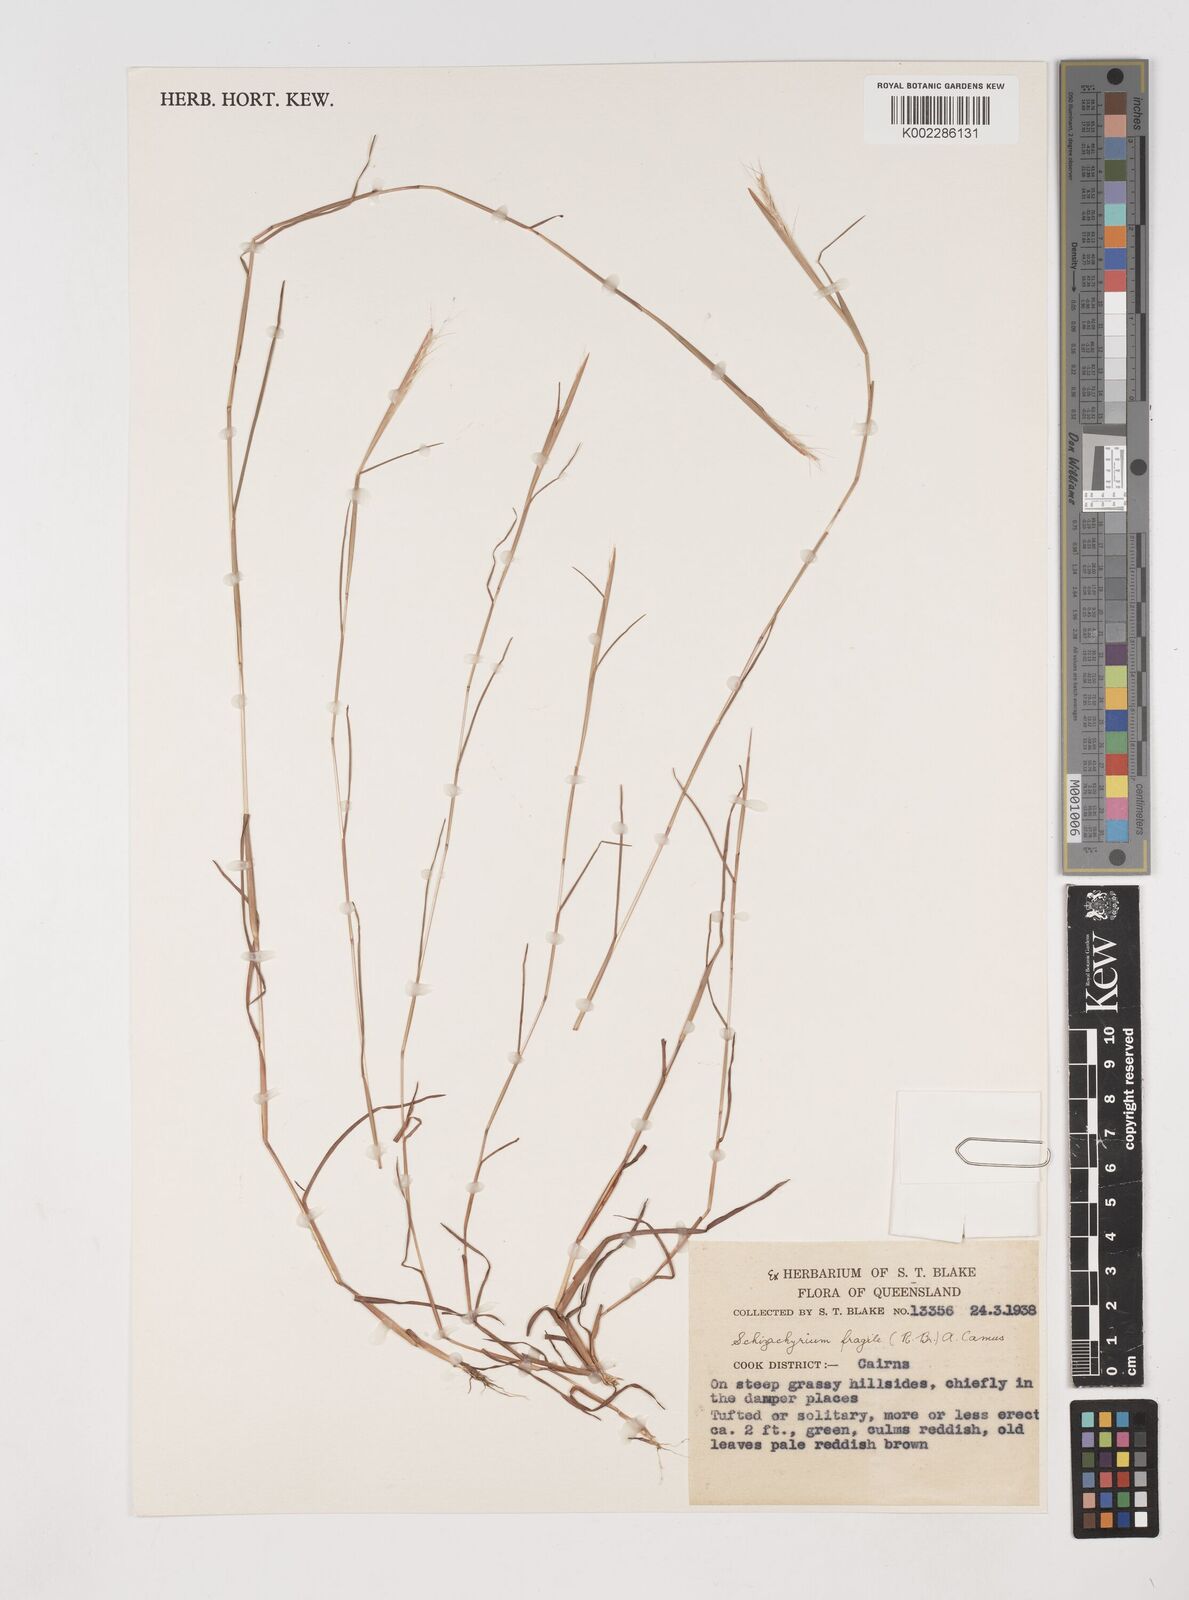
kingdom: Plantae
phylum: Tracheophyta
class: Liliopsida
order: Poales
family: Poaceae
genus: Schizachyrium
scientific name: Schizachyrium fragile
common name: Red spathe grass
